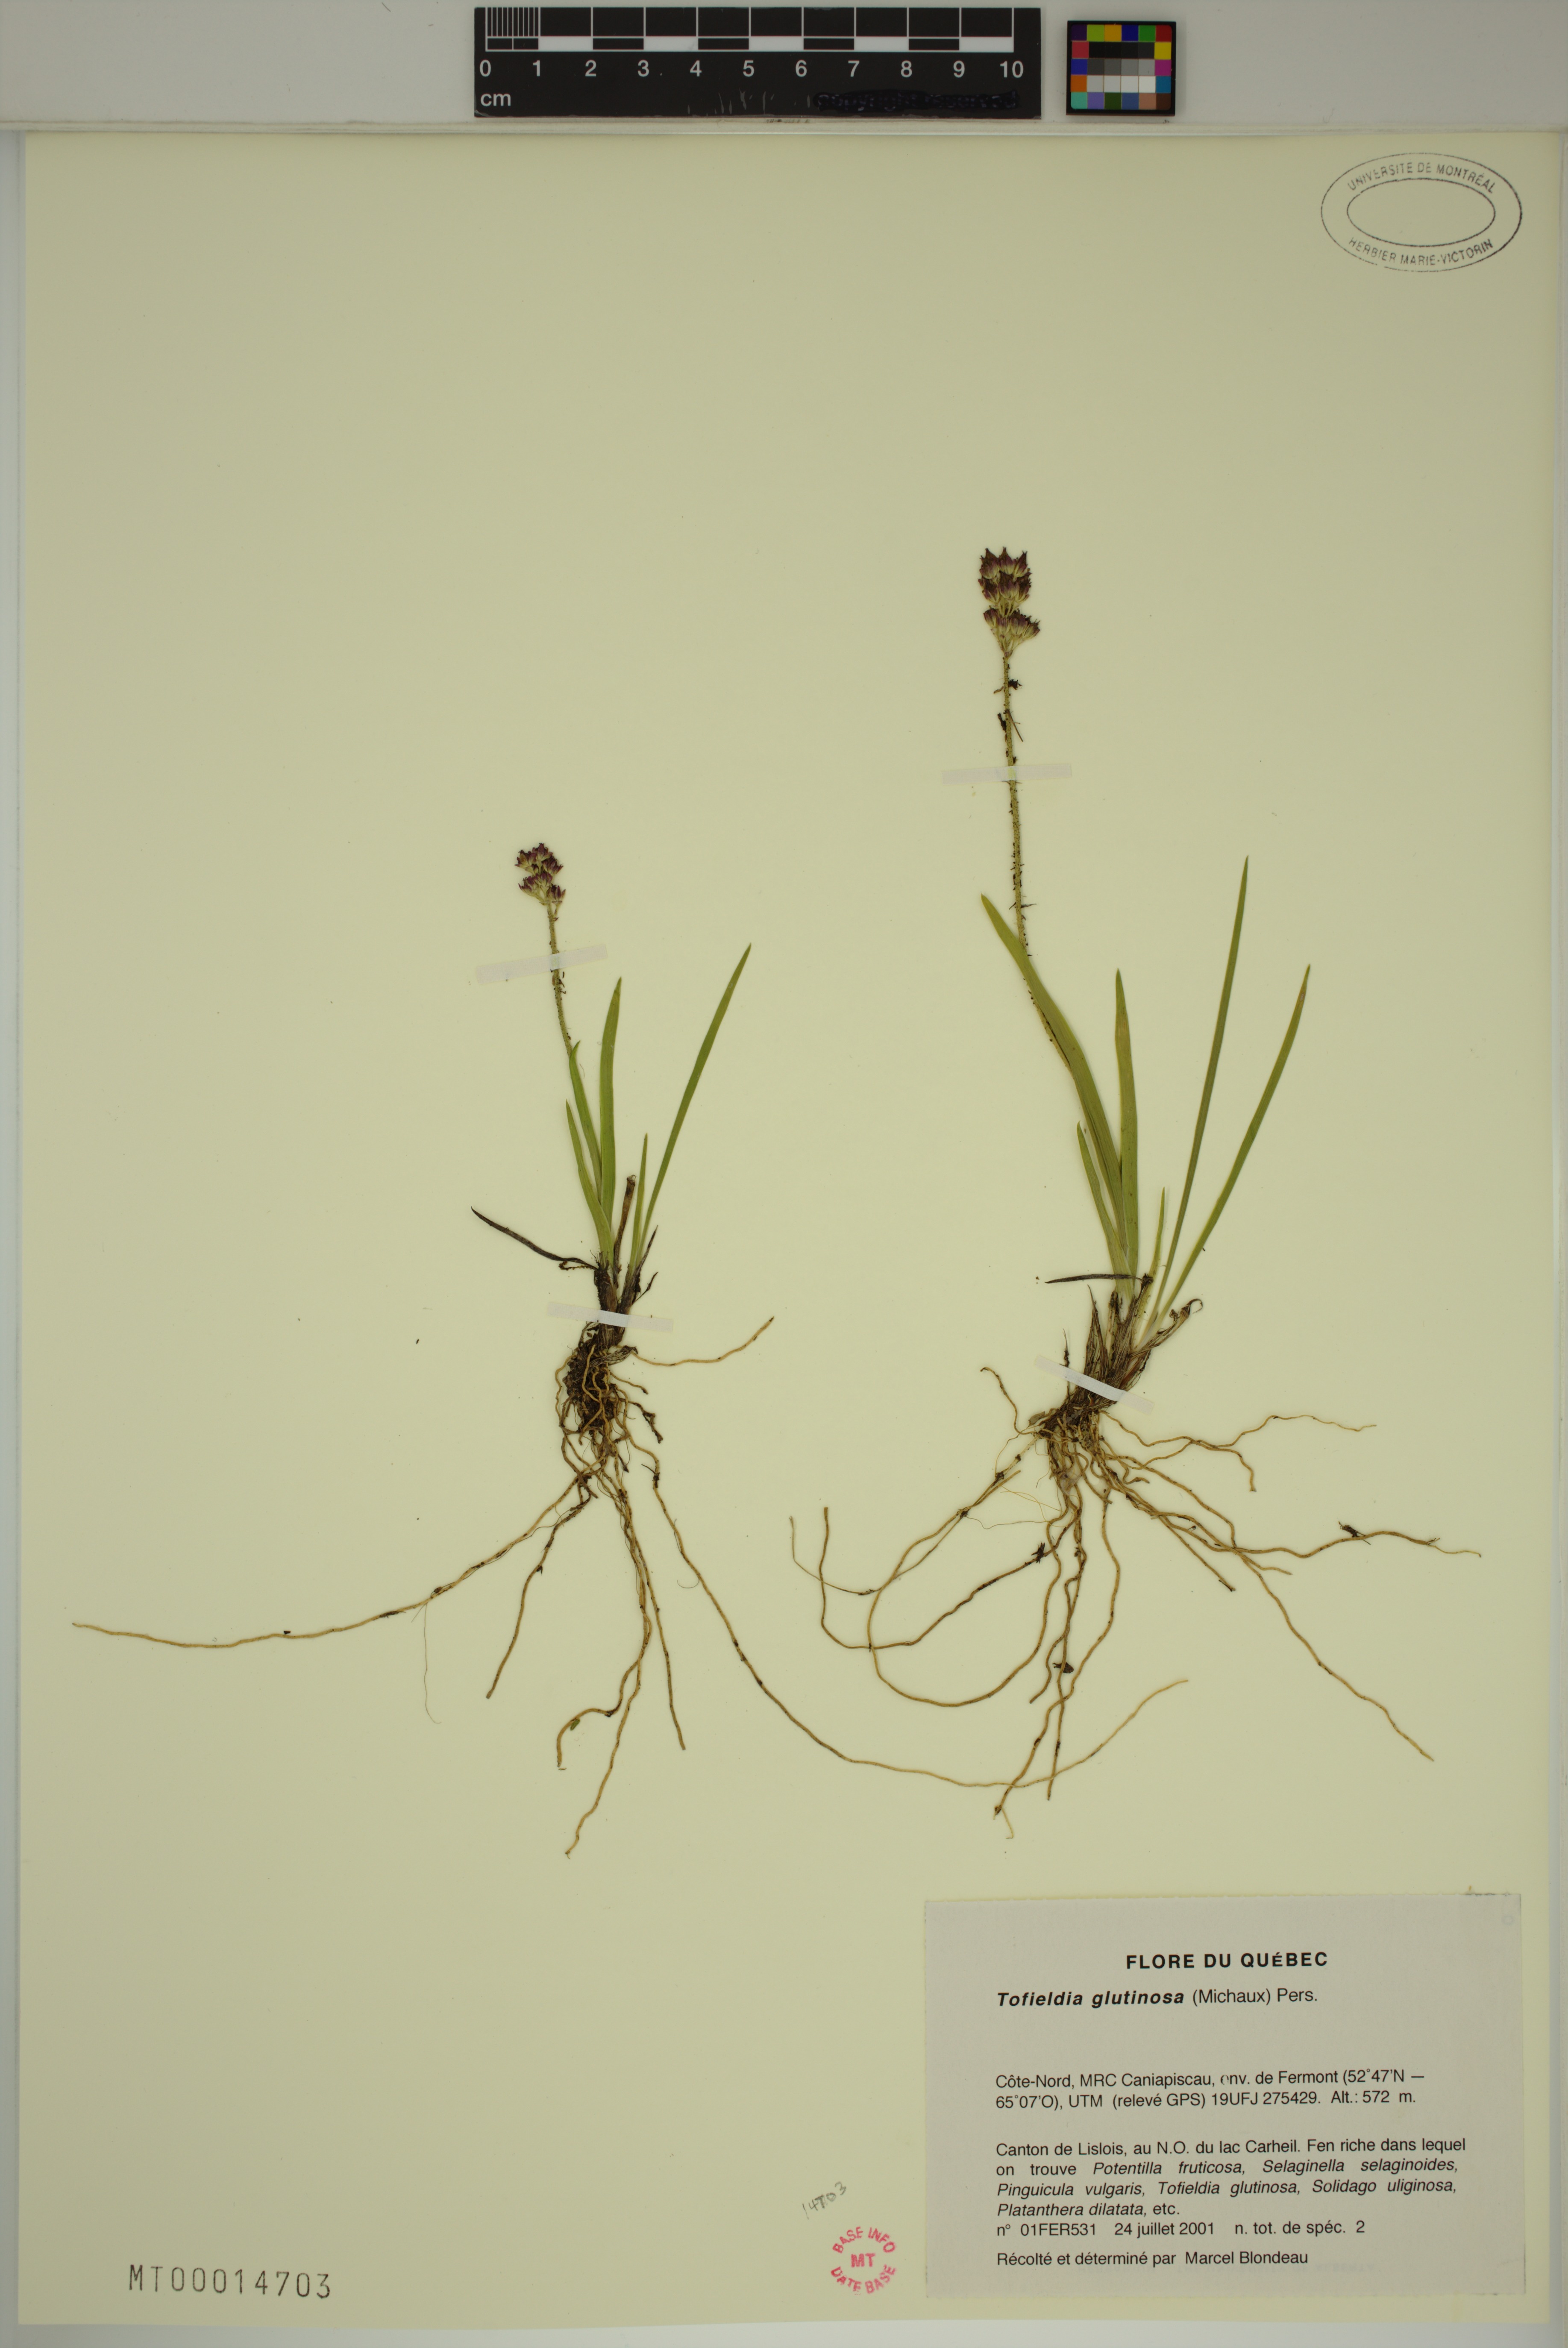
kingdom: Plantae
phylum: Tracheophyta
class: Liliopsida
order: Alismatales
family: Tofieldiaceae
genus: Triantha
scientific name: Triantha glutinosa
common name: Glutinous tofieldia
